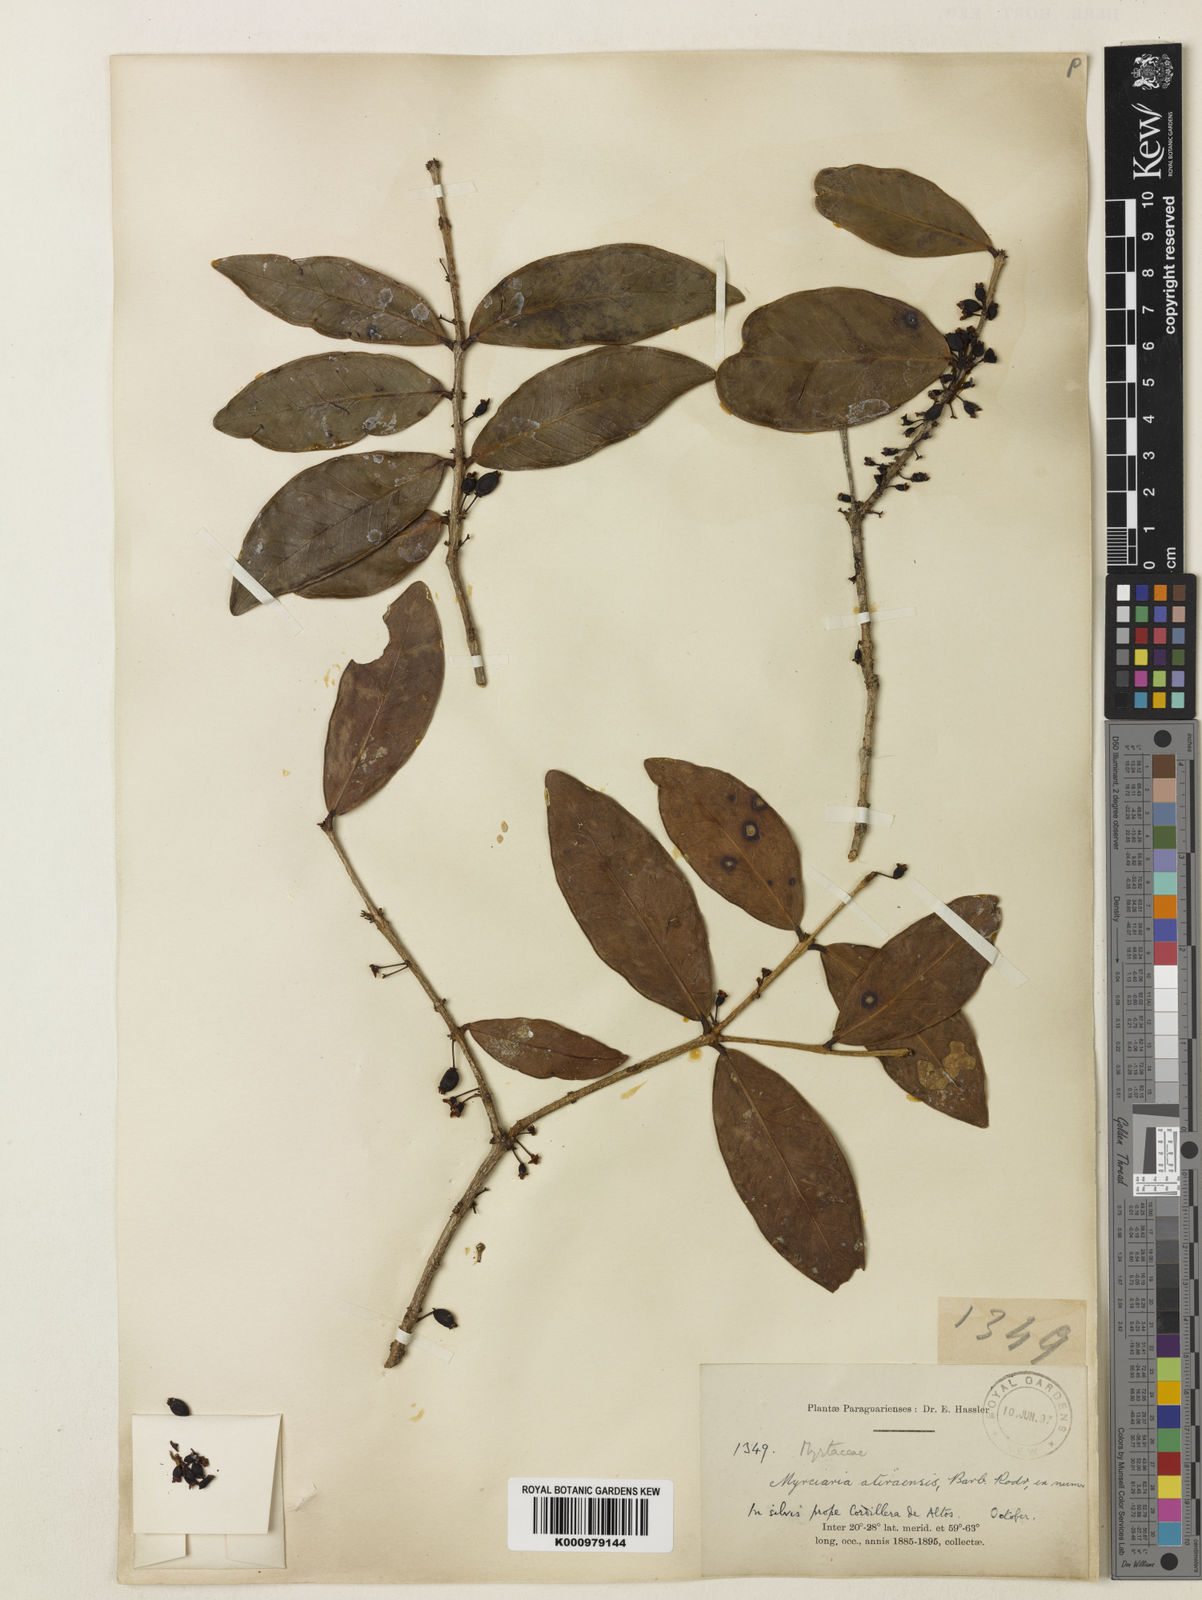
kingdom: Plantae
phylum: Tracheophyta
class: Magnoliopsida
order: Myrtales
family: Myrtaceae
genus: Eugenia
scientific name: Eugenia bimarginata
